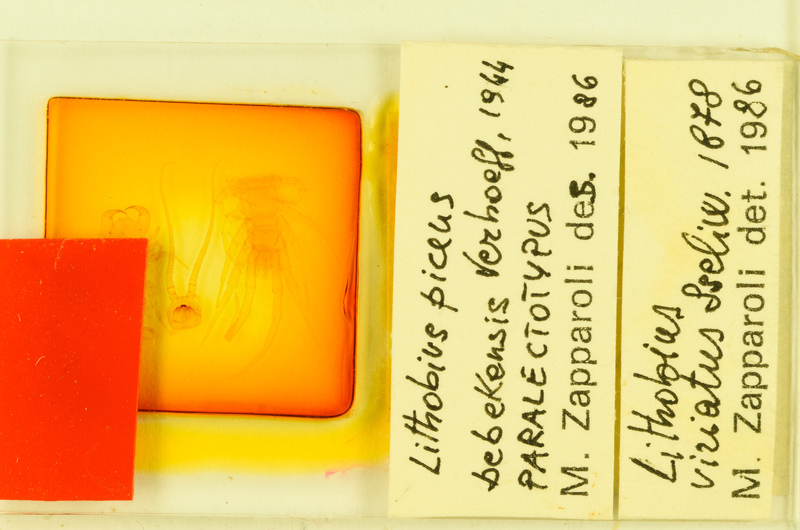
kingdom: Animalia
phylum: Arthropoda
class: Chilopoda
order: Lithobiomorpha
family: Lithobiidae
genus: Lithobius
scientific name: Lithobius viriatus
